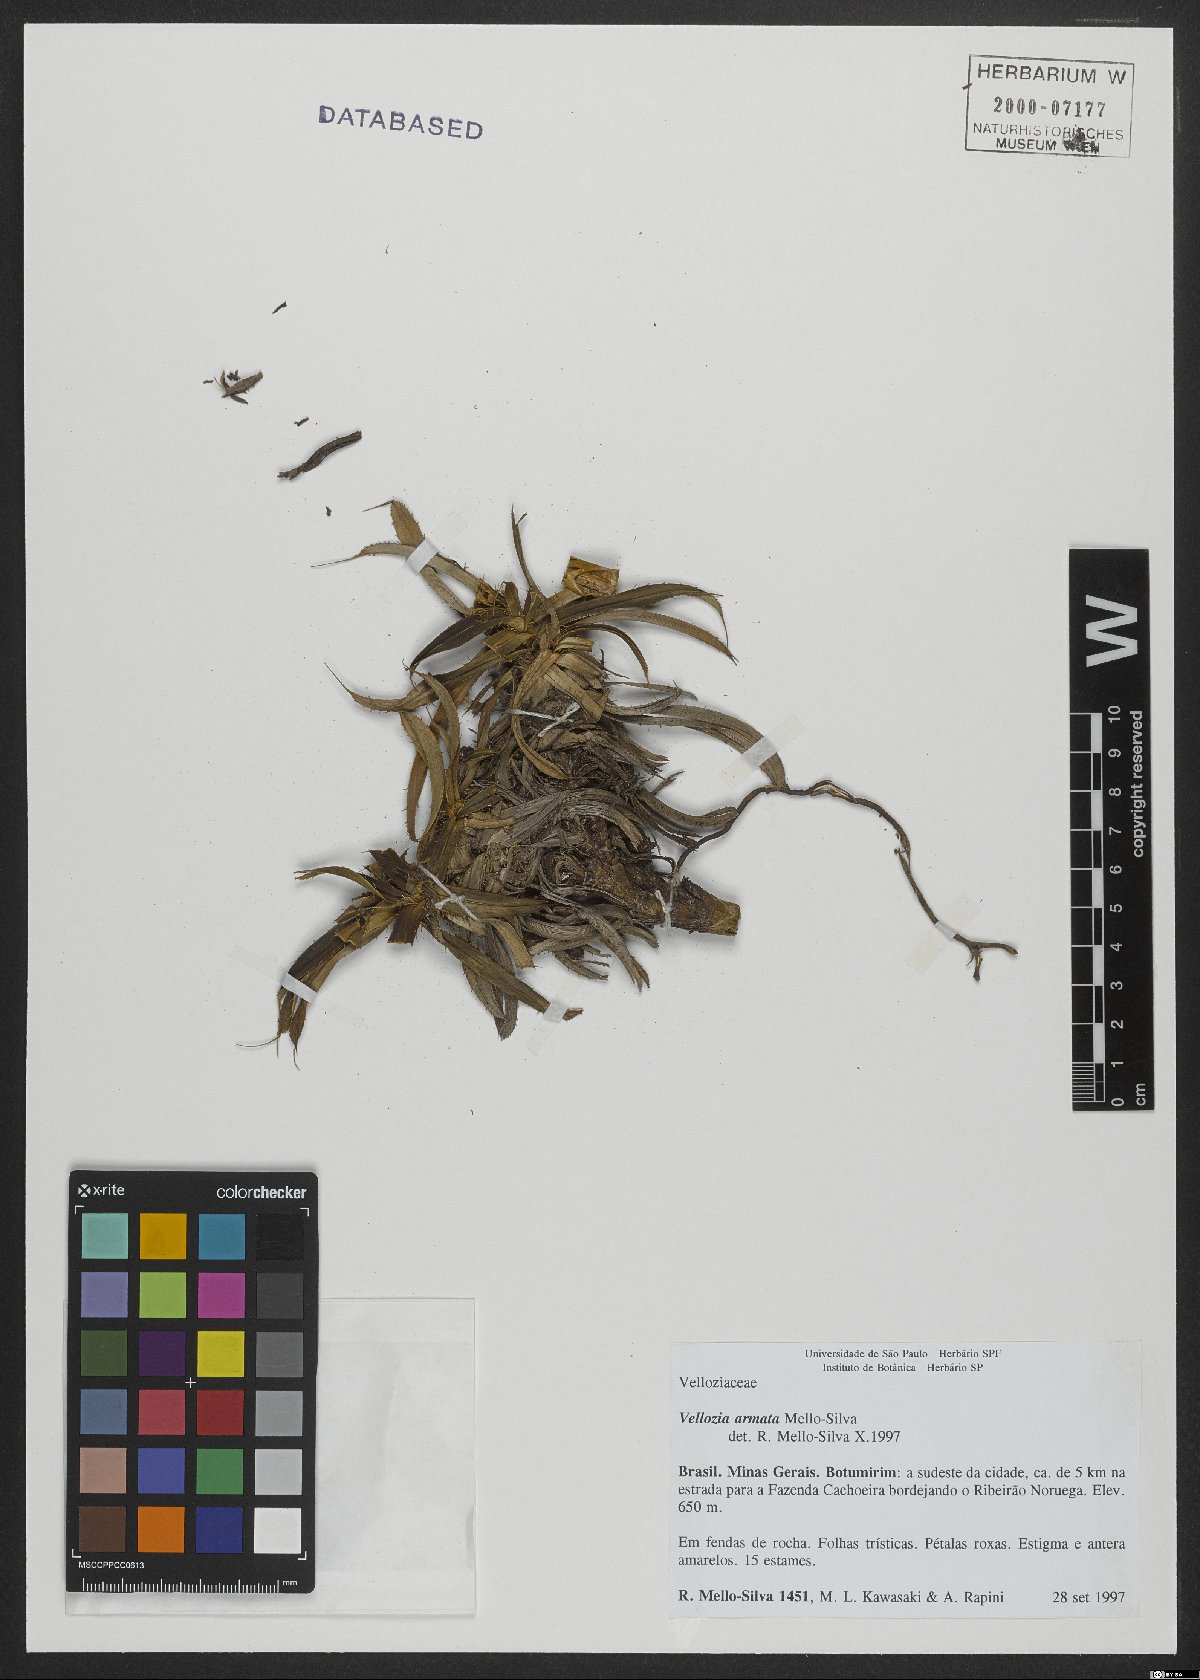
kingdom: Plantae
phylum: Tracheophyta
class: Liliopsida
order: Pandanales
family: Velloziaceae
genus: Vellozia
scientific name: Vellozia armata
